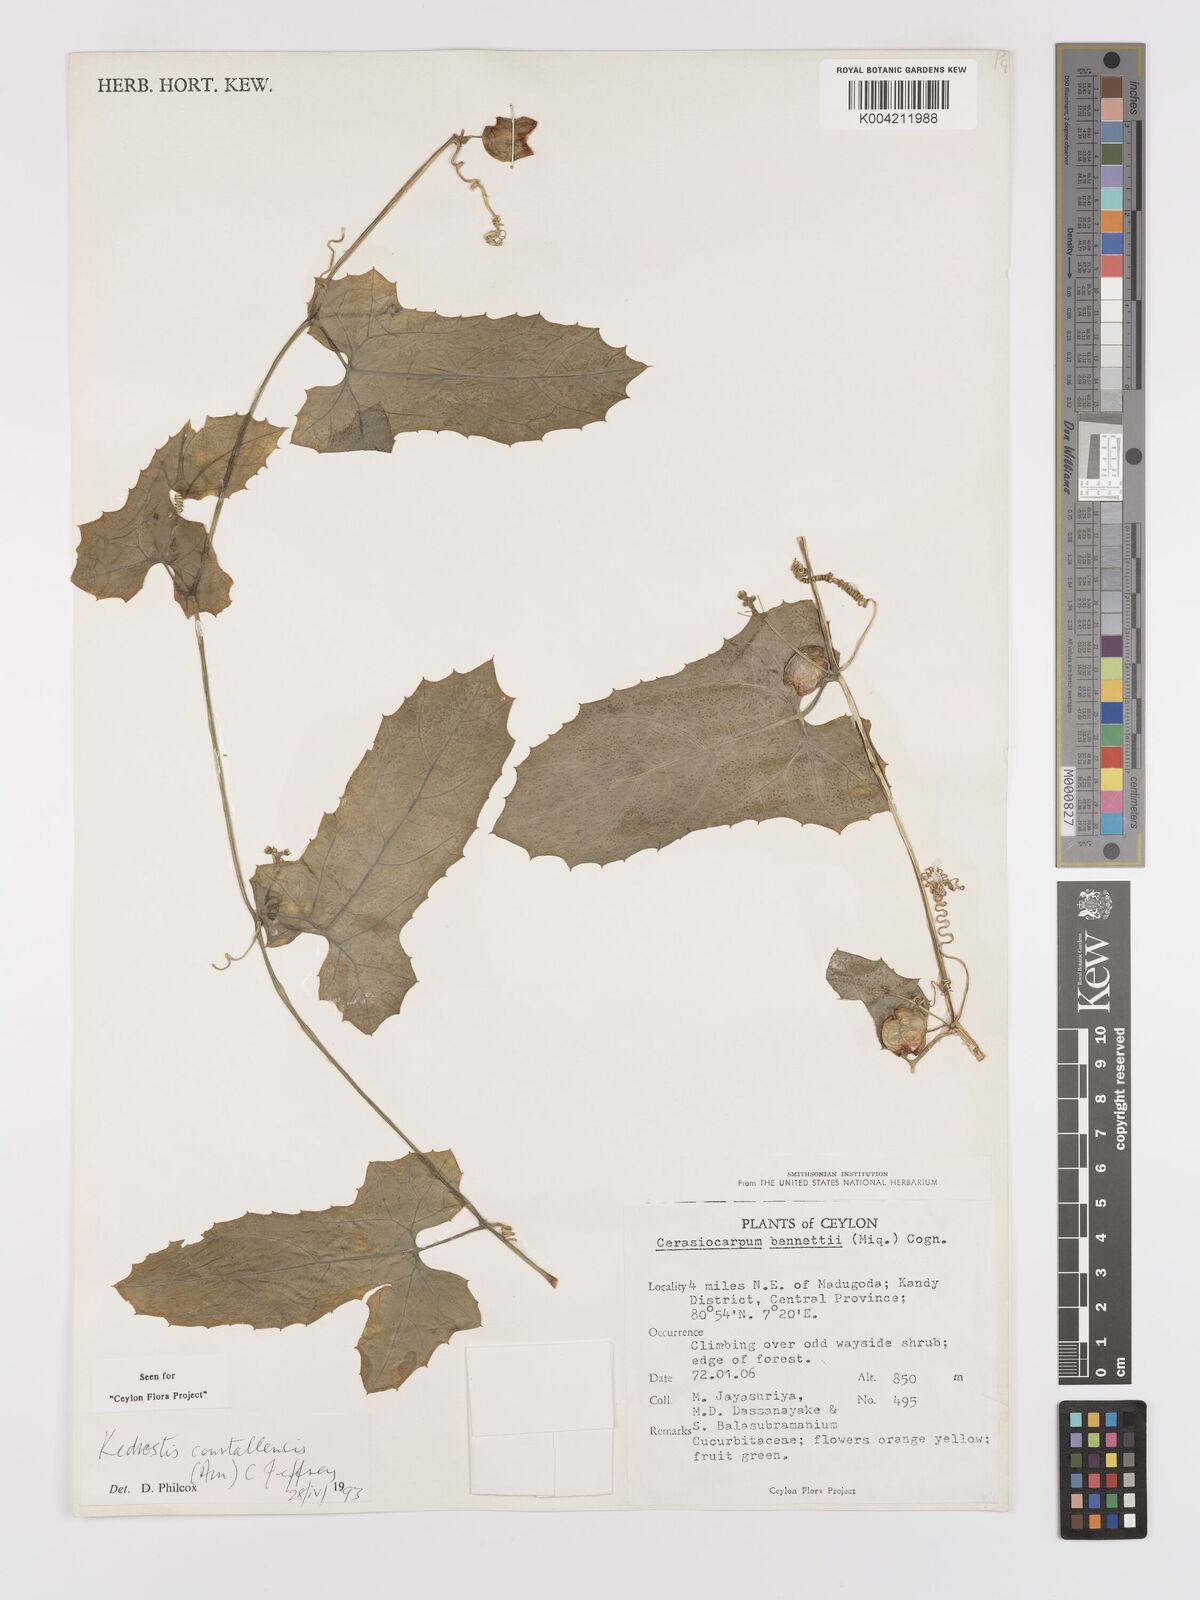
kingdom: Plantae
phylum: Tracheophyta
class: Magnoliopsida
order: Cucurbitales
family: Cucurbitaceae
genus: Kedrostis
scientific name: Kedrostis courtallensis
